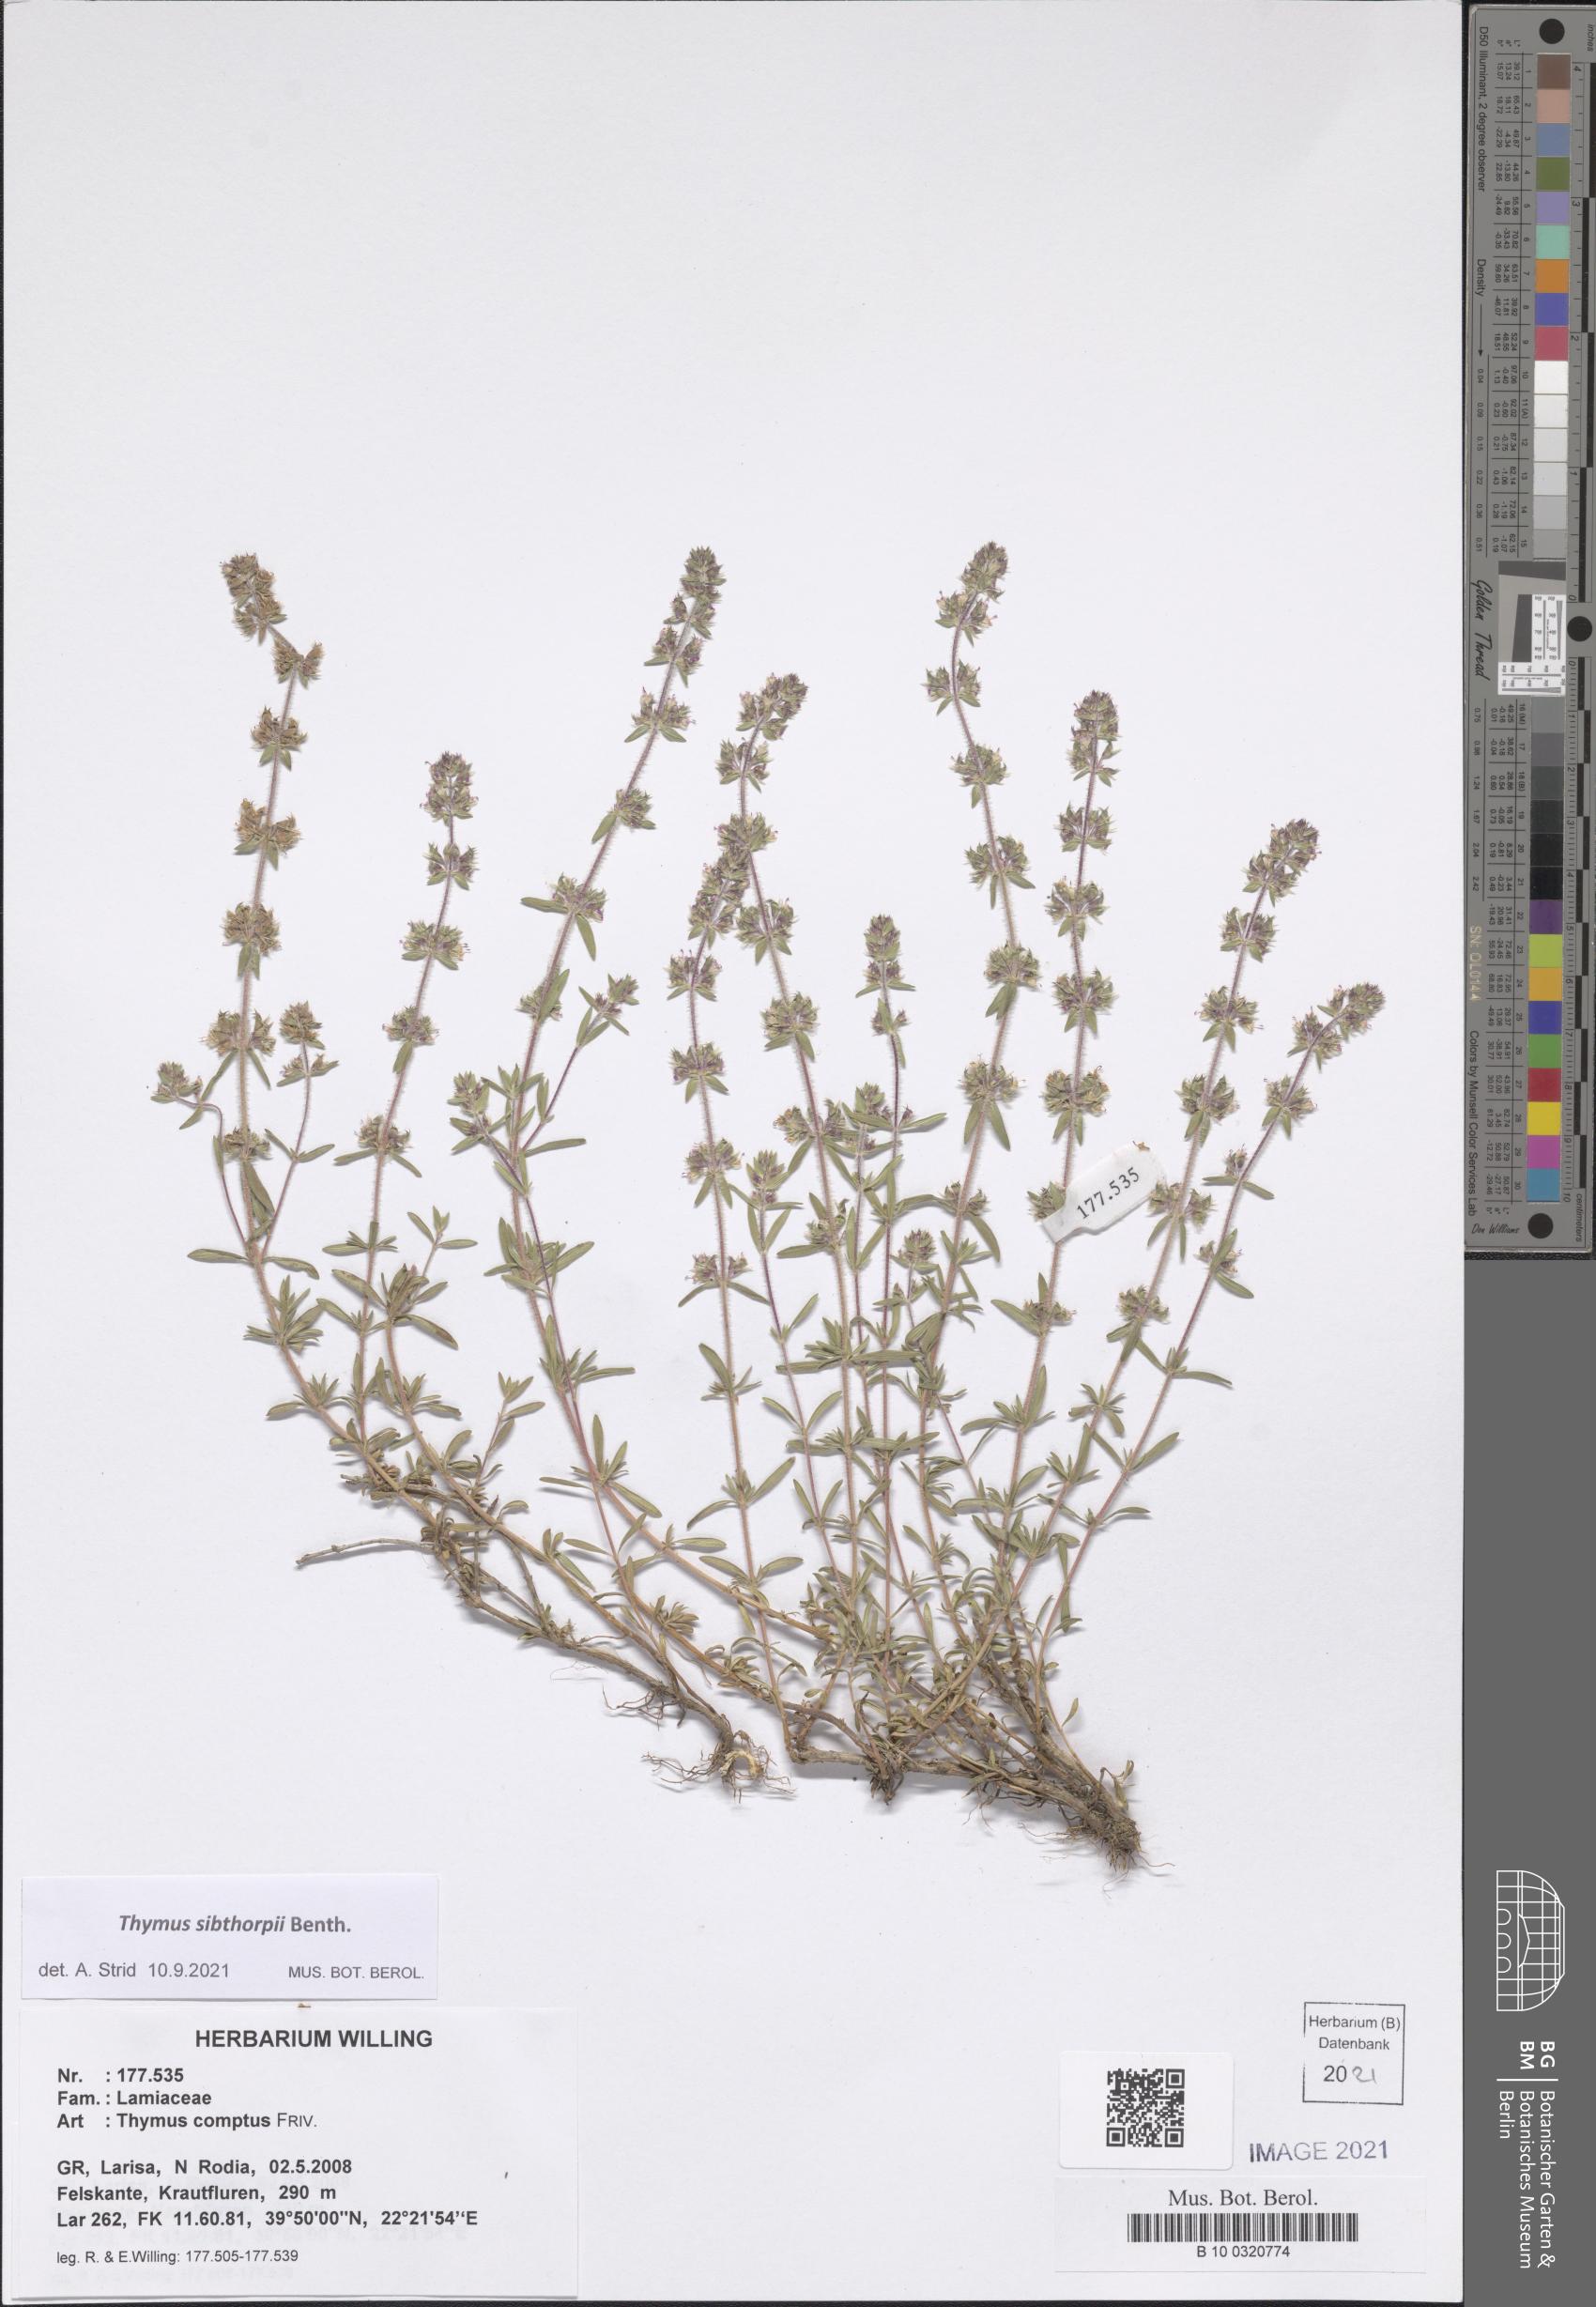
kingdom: Plantae
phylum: Tracheophyta
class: Magnoliopsida
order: Lamiales
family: Lamiaceae
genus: Thymus
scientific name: Thymus sibthorpii
